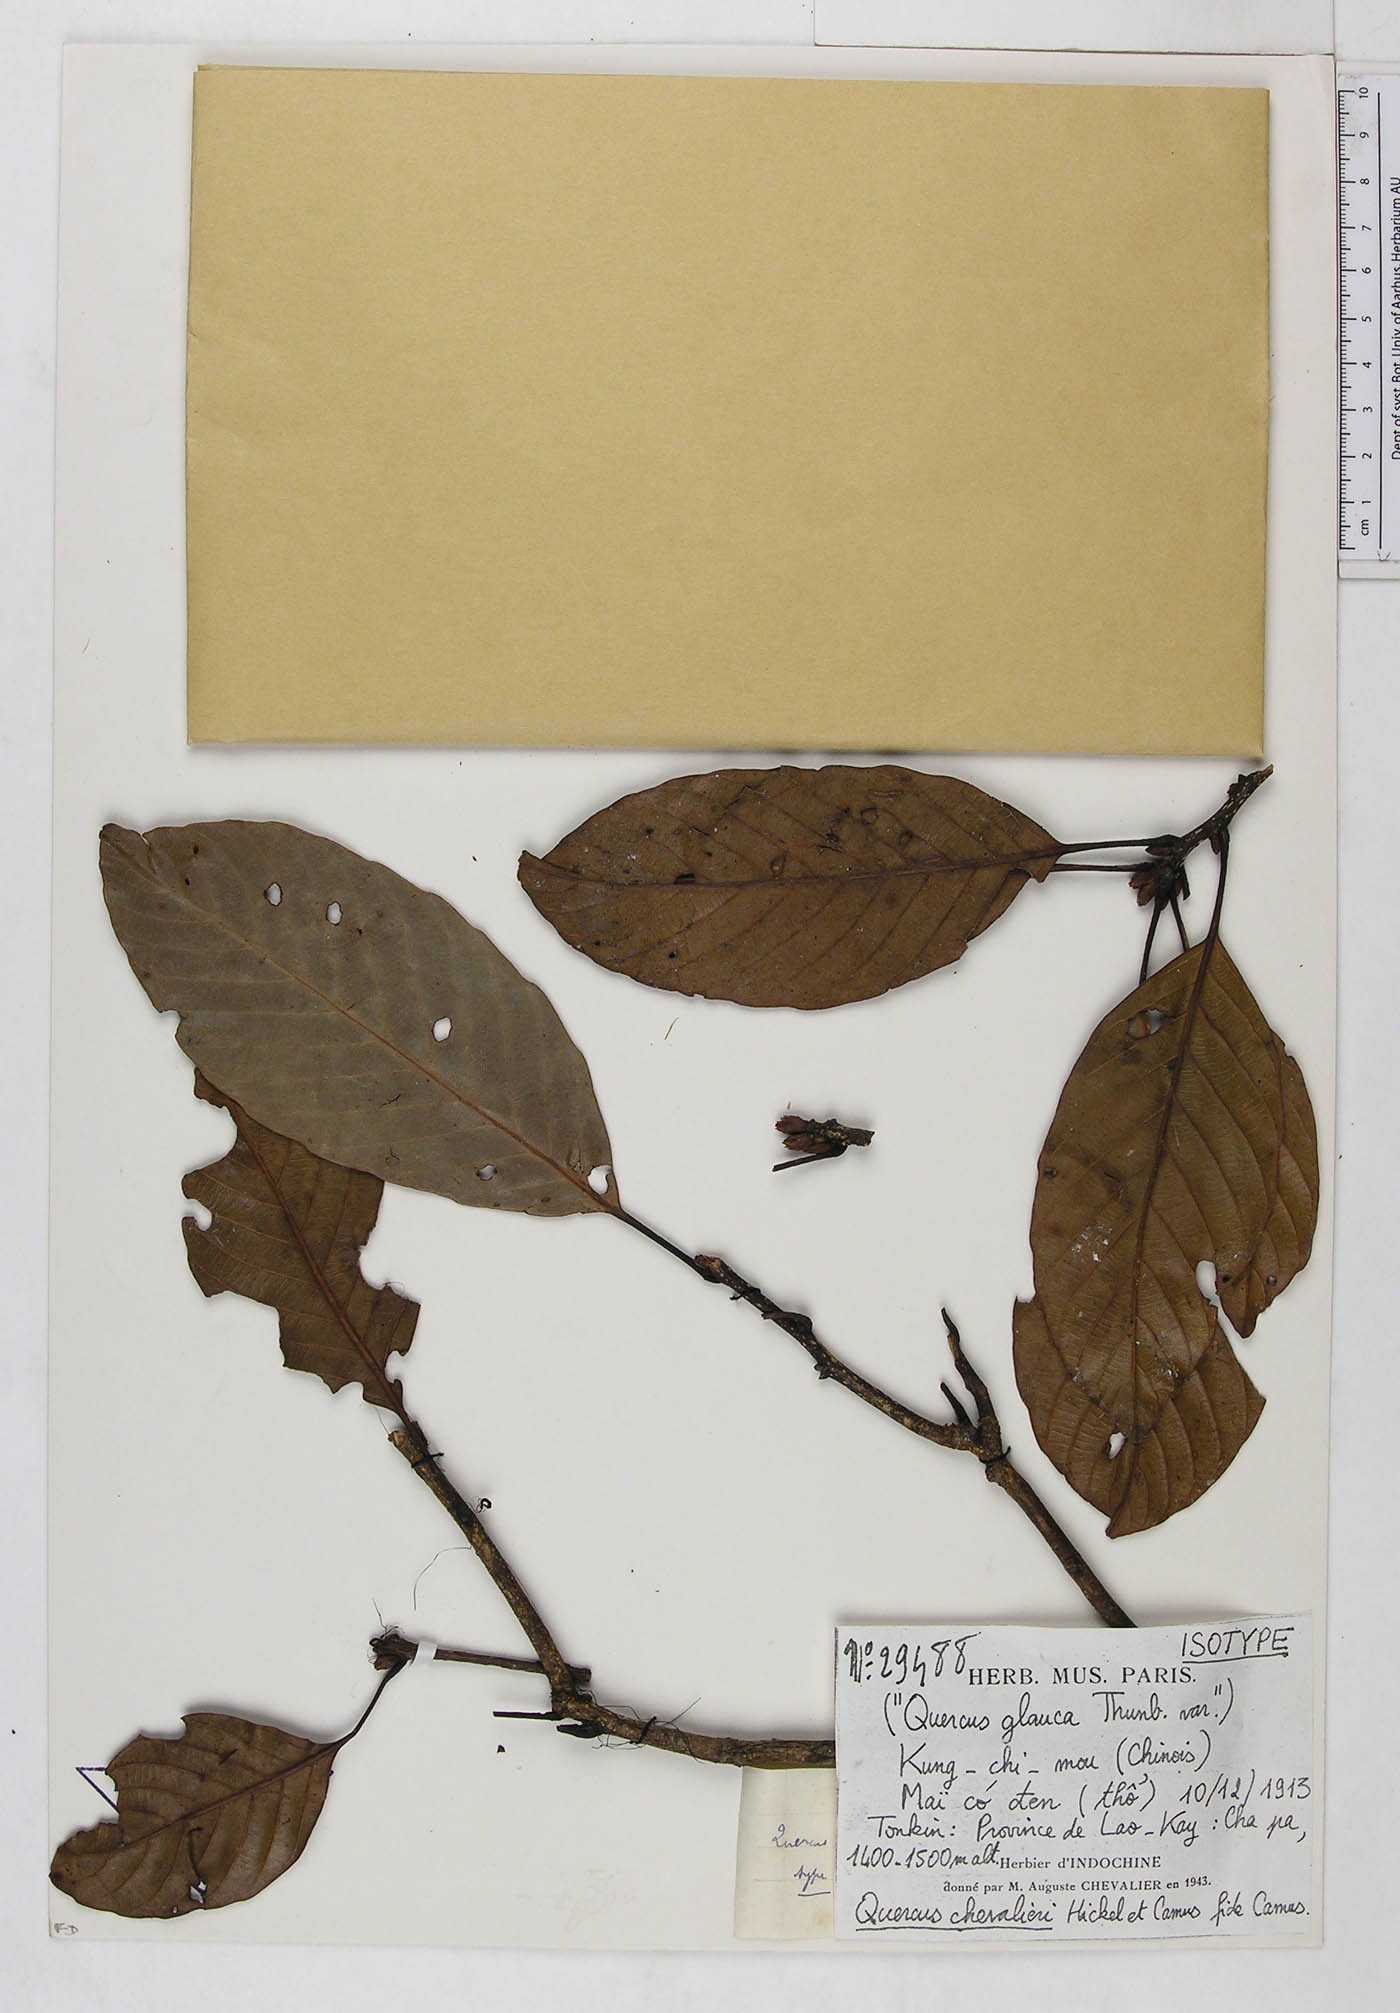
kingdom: Plantae
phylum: Tracheophyta
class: Magnoliopsida
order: Fagales
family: Fagaceae
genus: Quercus
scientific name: Quercus chevalieri
